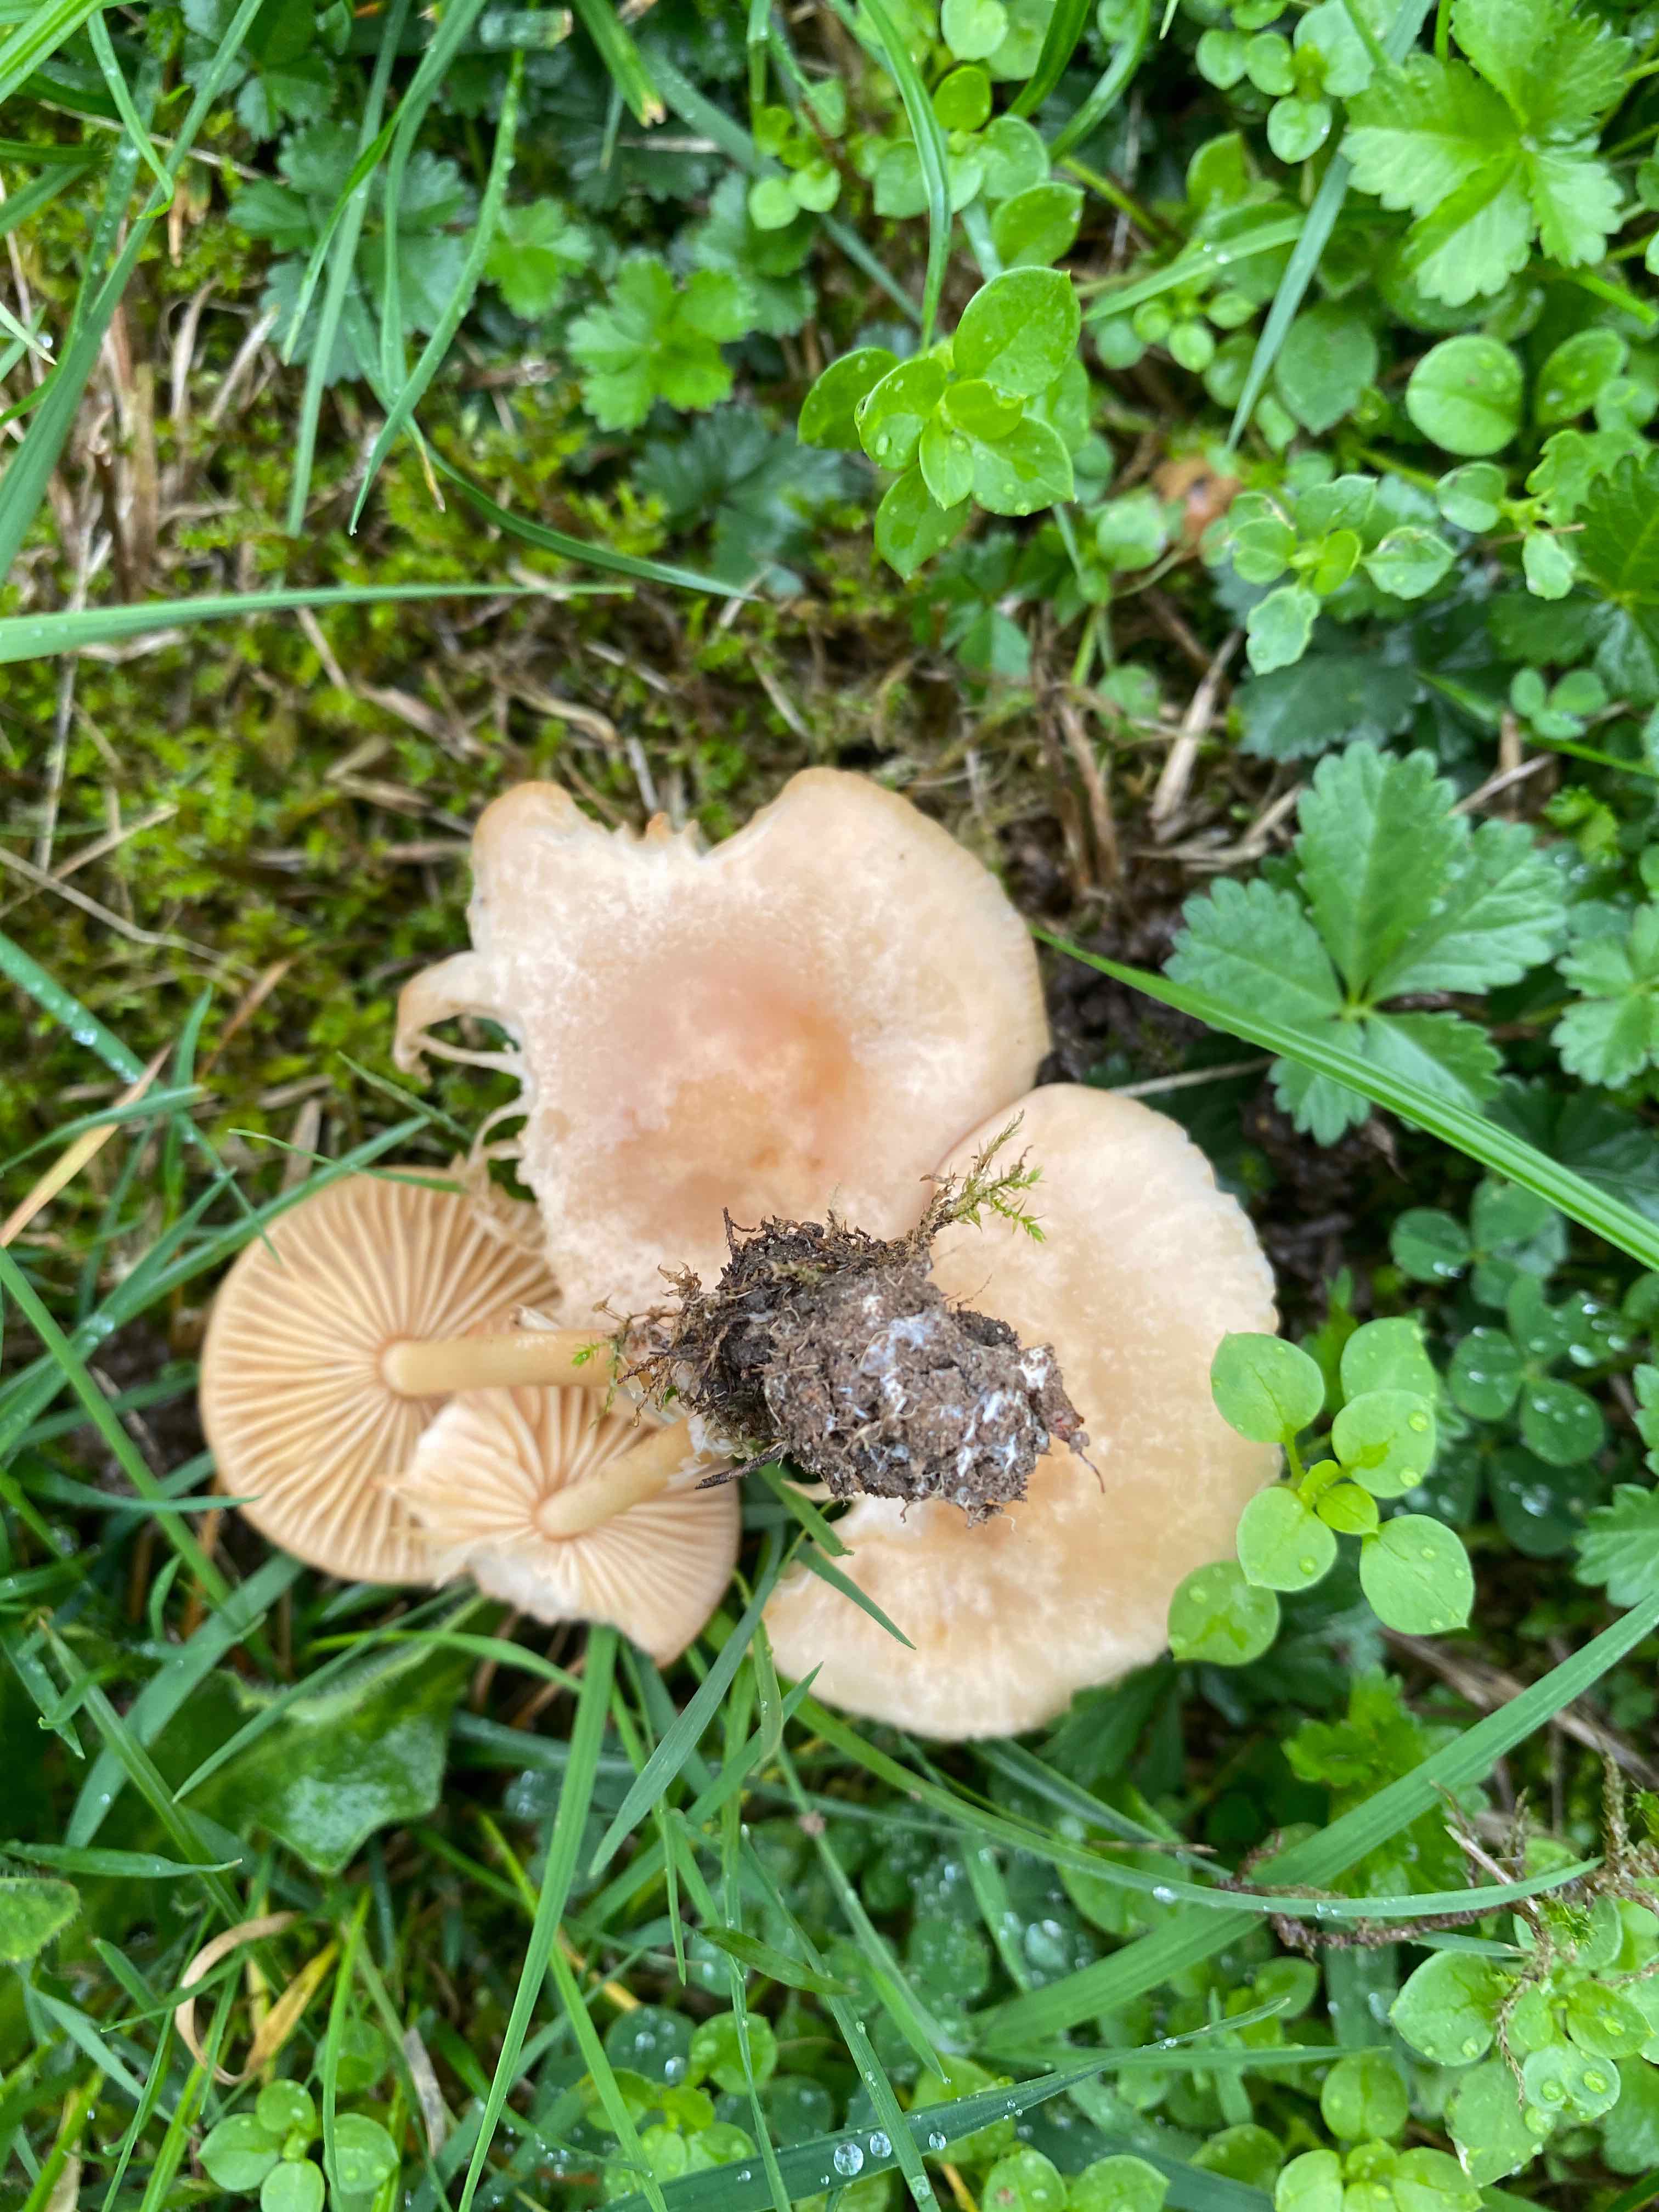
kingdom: Fungi
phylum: Basidiomycota
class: Agaricomycetes
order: Agaricales
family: Marasmiaceae
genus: Marasmius
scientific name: Marasmius oreades
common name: elledans-bruskhat
